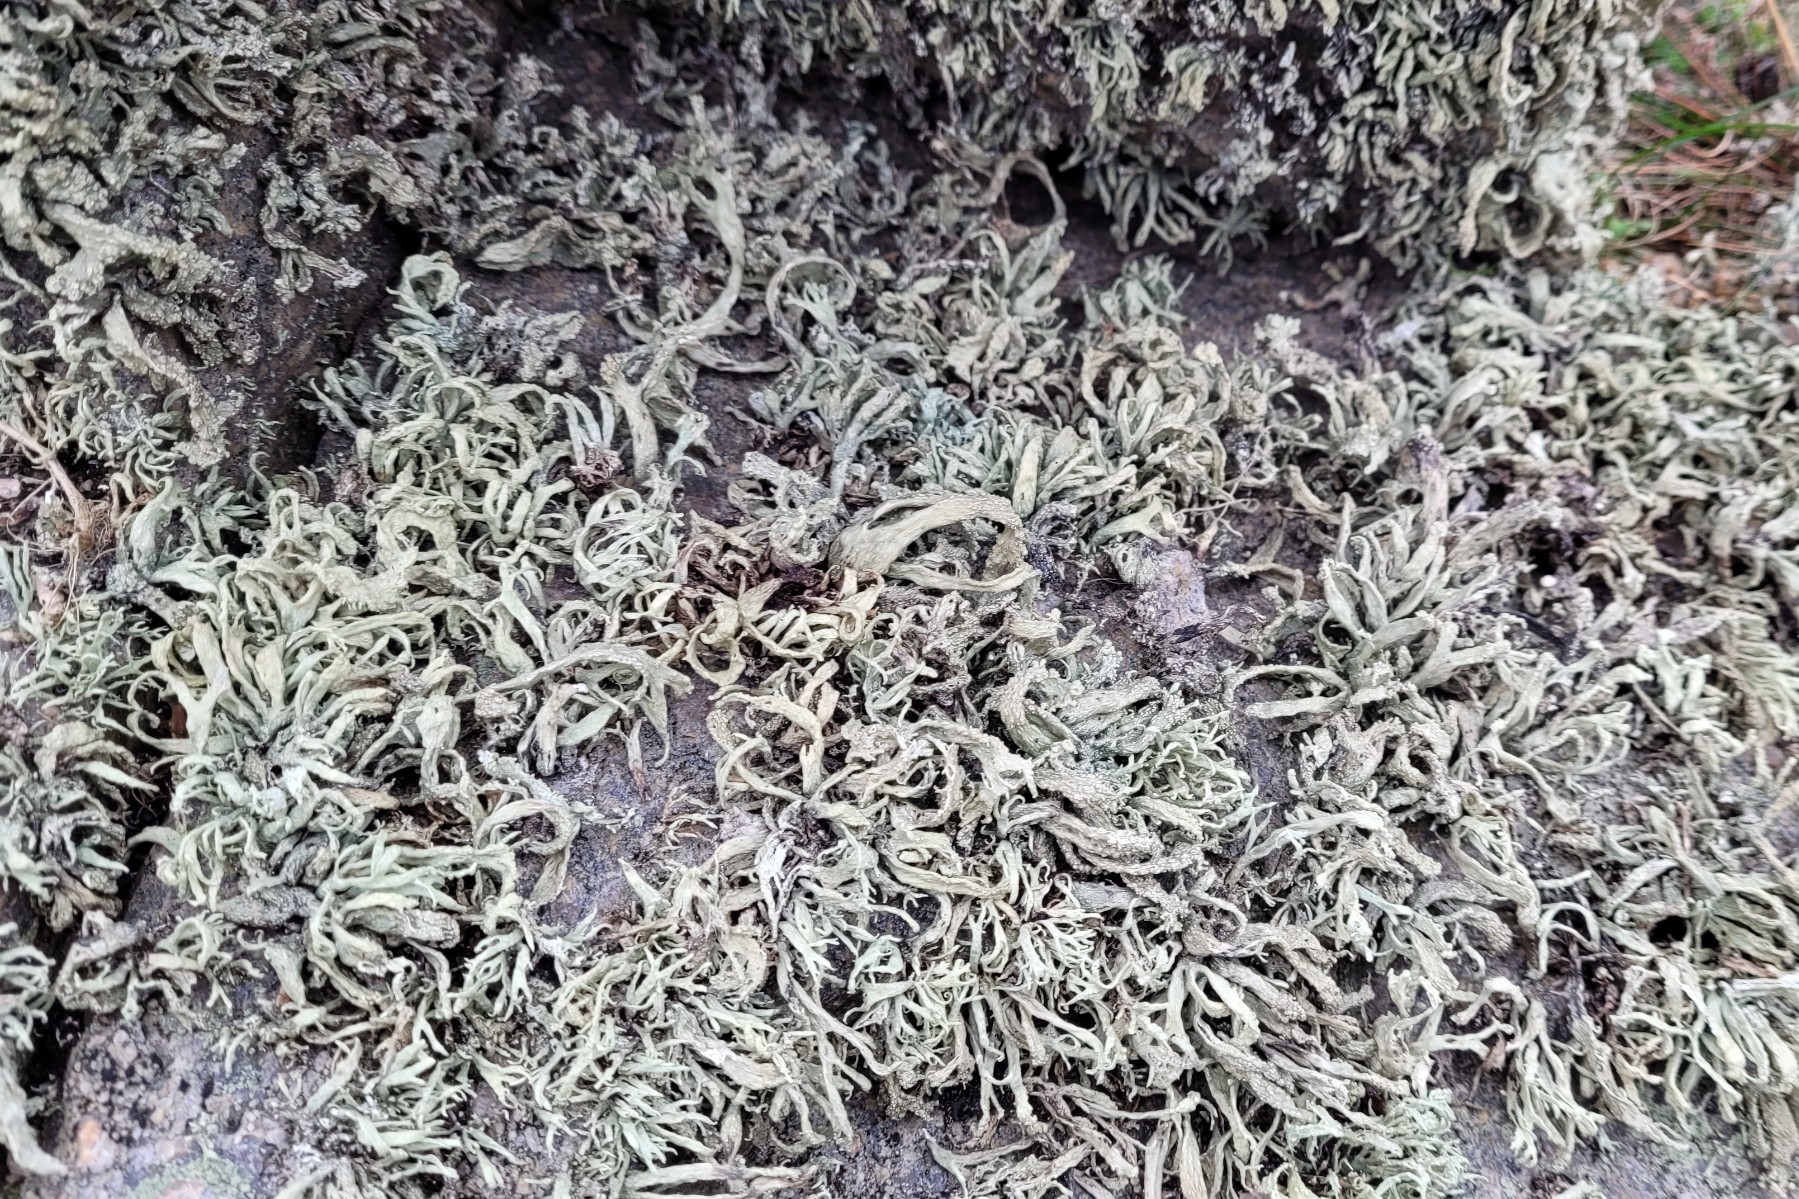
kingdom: Fungi
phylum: Ascomycota
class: Lecanoromycetes
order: Lecanorales
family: Ramalinaceae
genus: Ramalina
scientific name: Ramalina siliquosa
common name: klippe-grenlav
